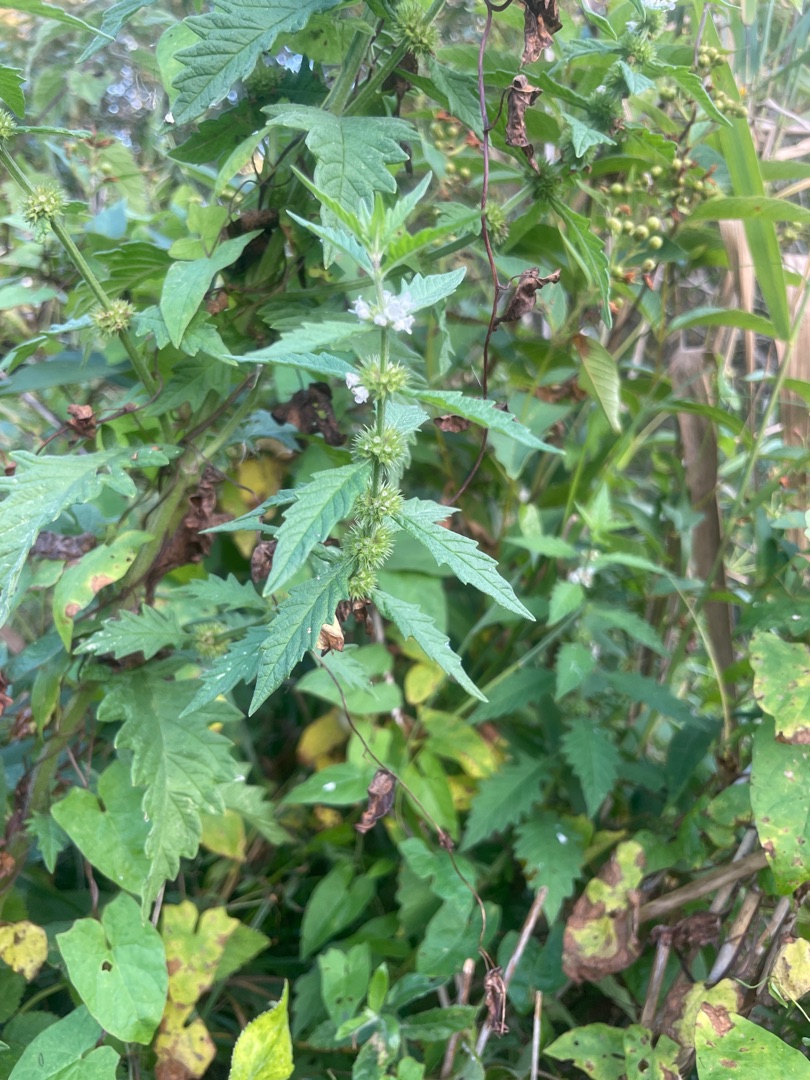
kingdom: Plantae
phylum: Tracheophyta
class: Magnoliopsida
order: Lamiales
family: Lamiaceae
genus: Lycopus
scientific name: Lycopus europaeus
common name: Sværtevæld
